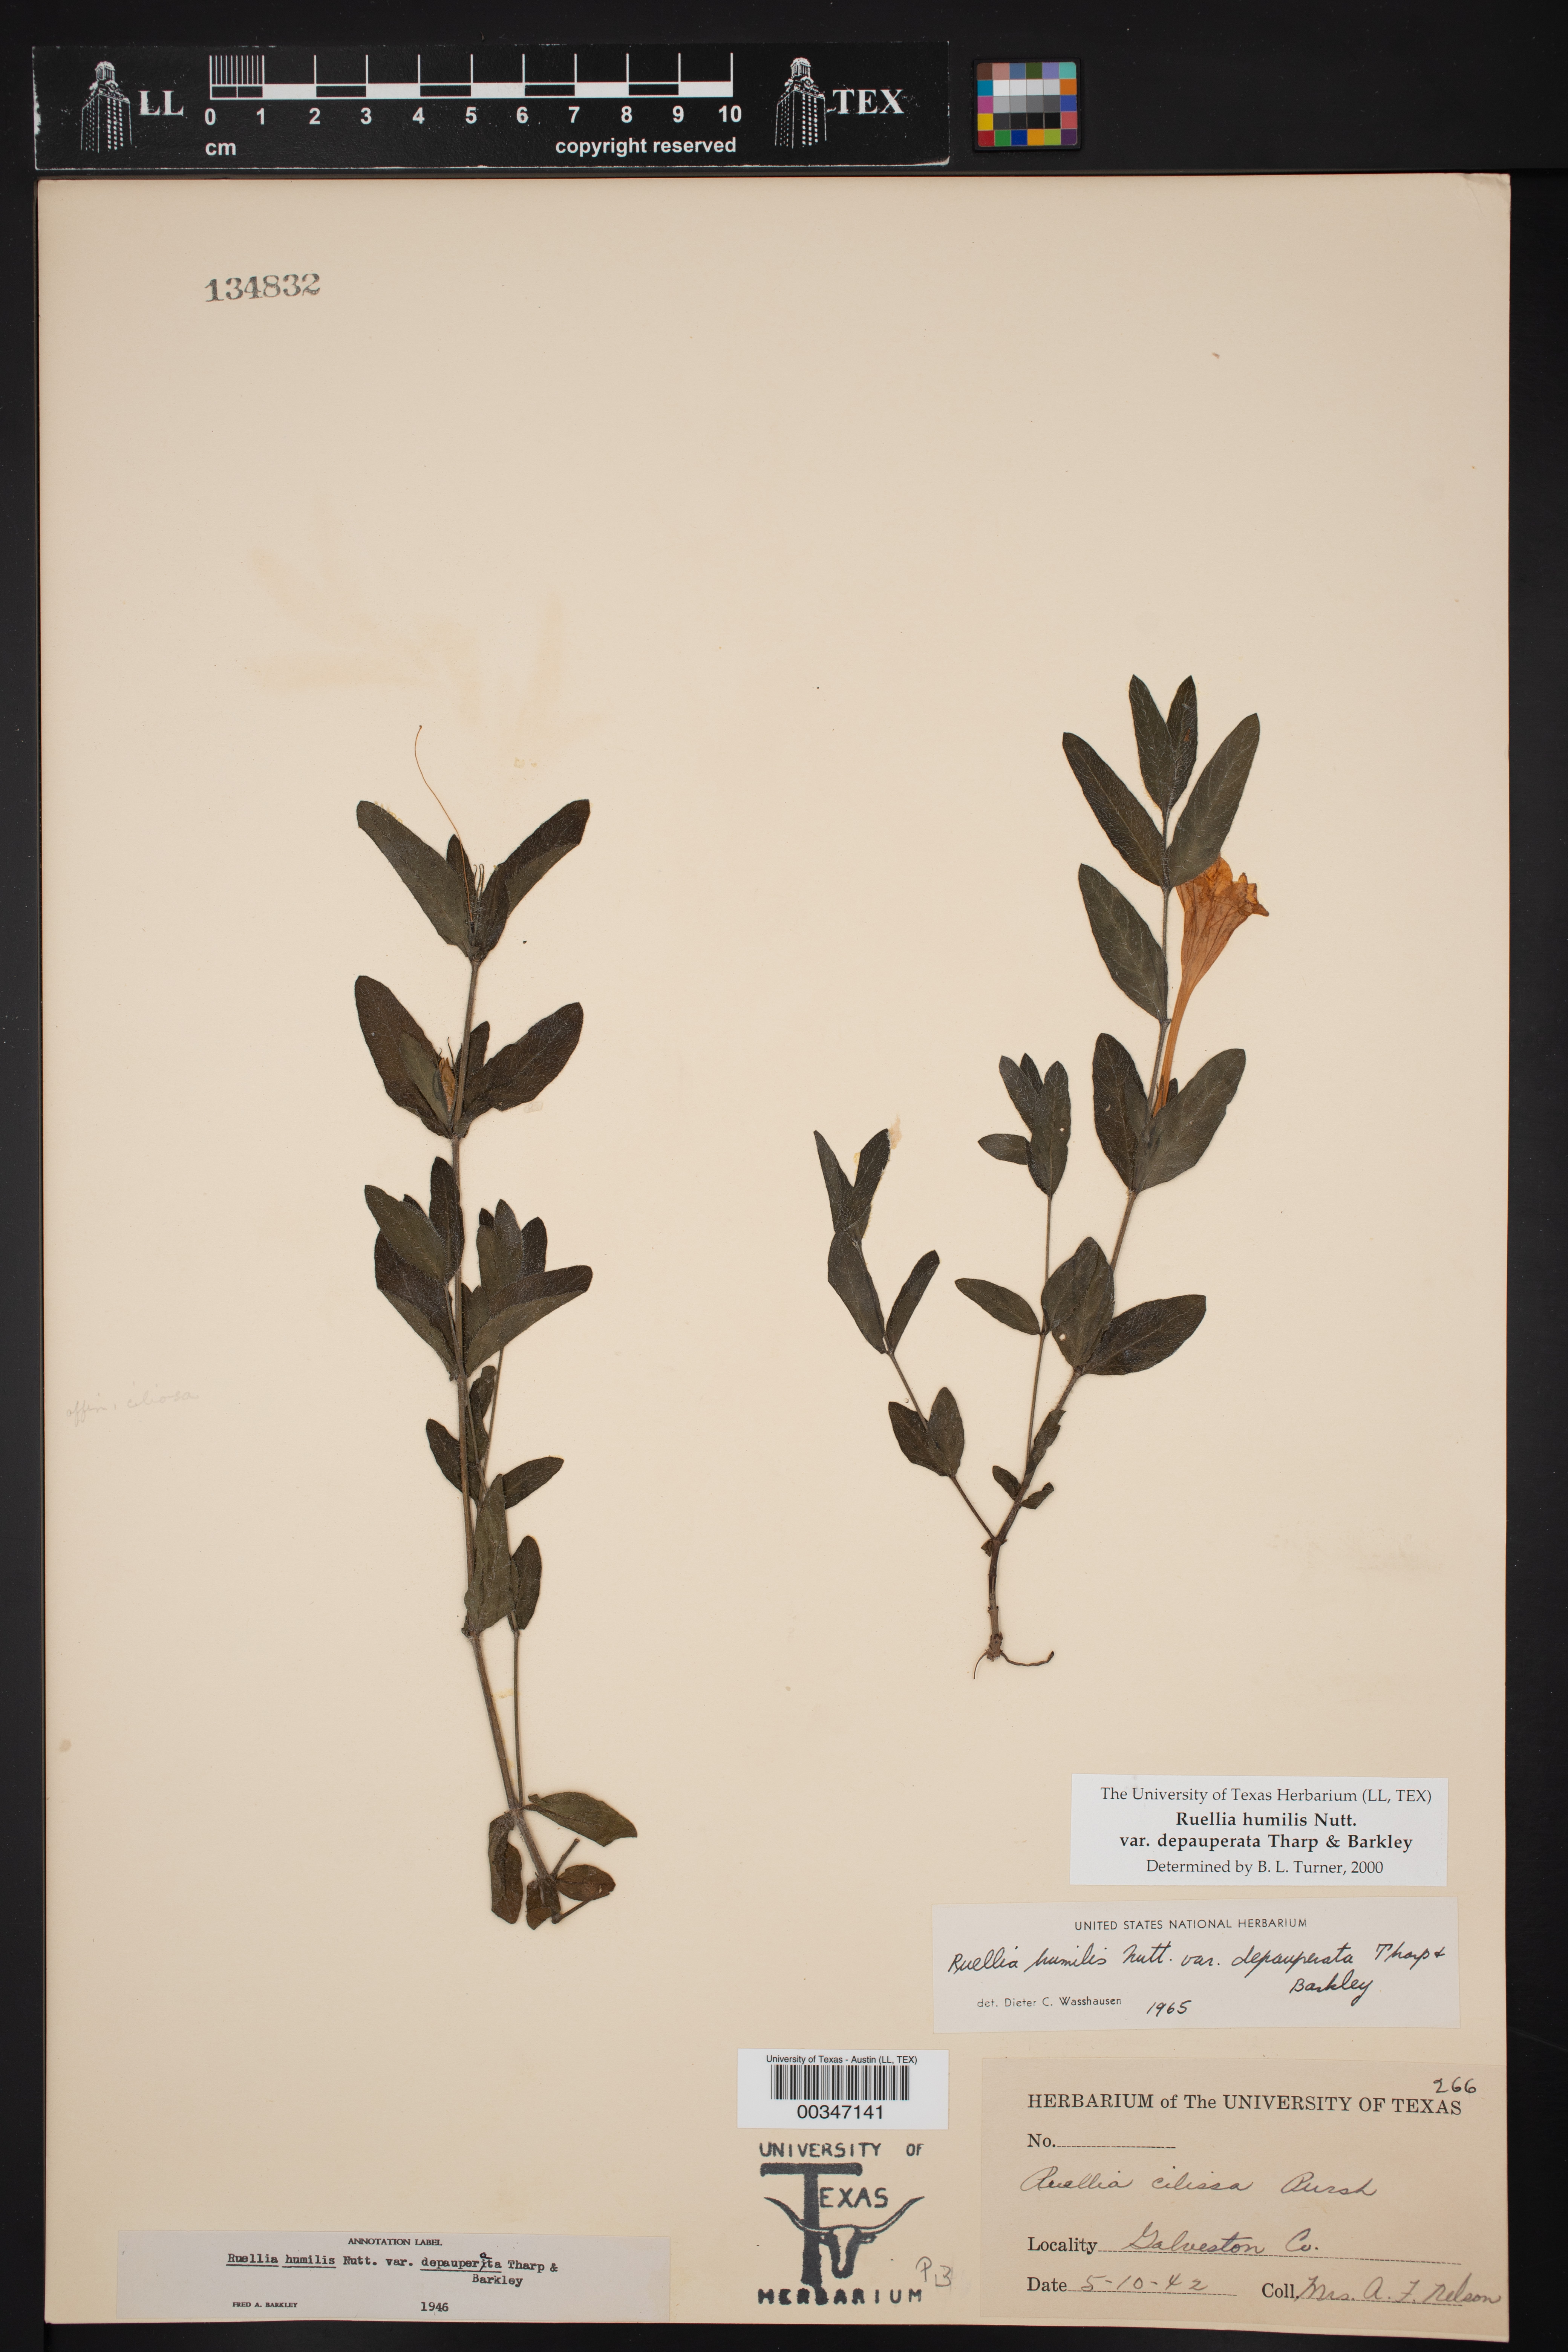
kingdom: Plantae
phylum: Tracheophyta
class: Magnoliopsida
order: Lamiales
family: Acanthaceae
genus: Ruellia
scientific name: Ruellia humilis
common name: Fringe-leaf ruellia
